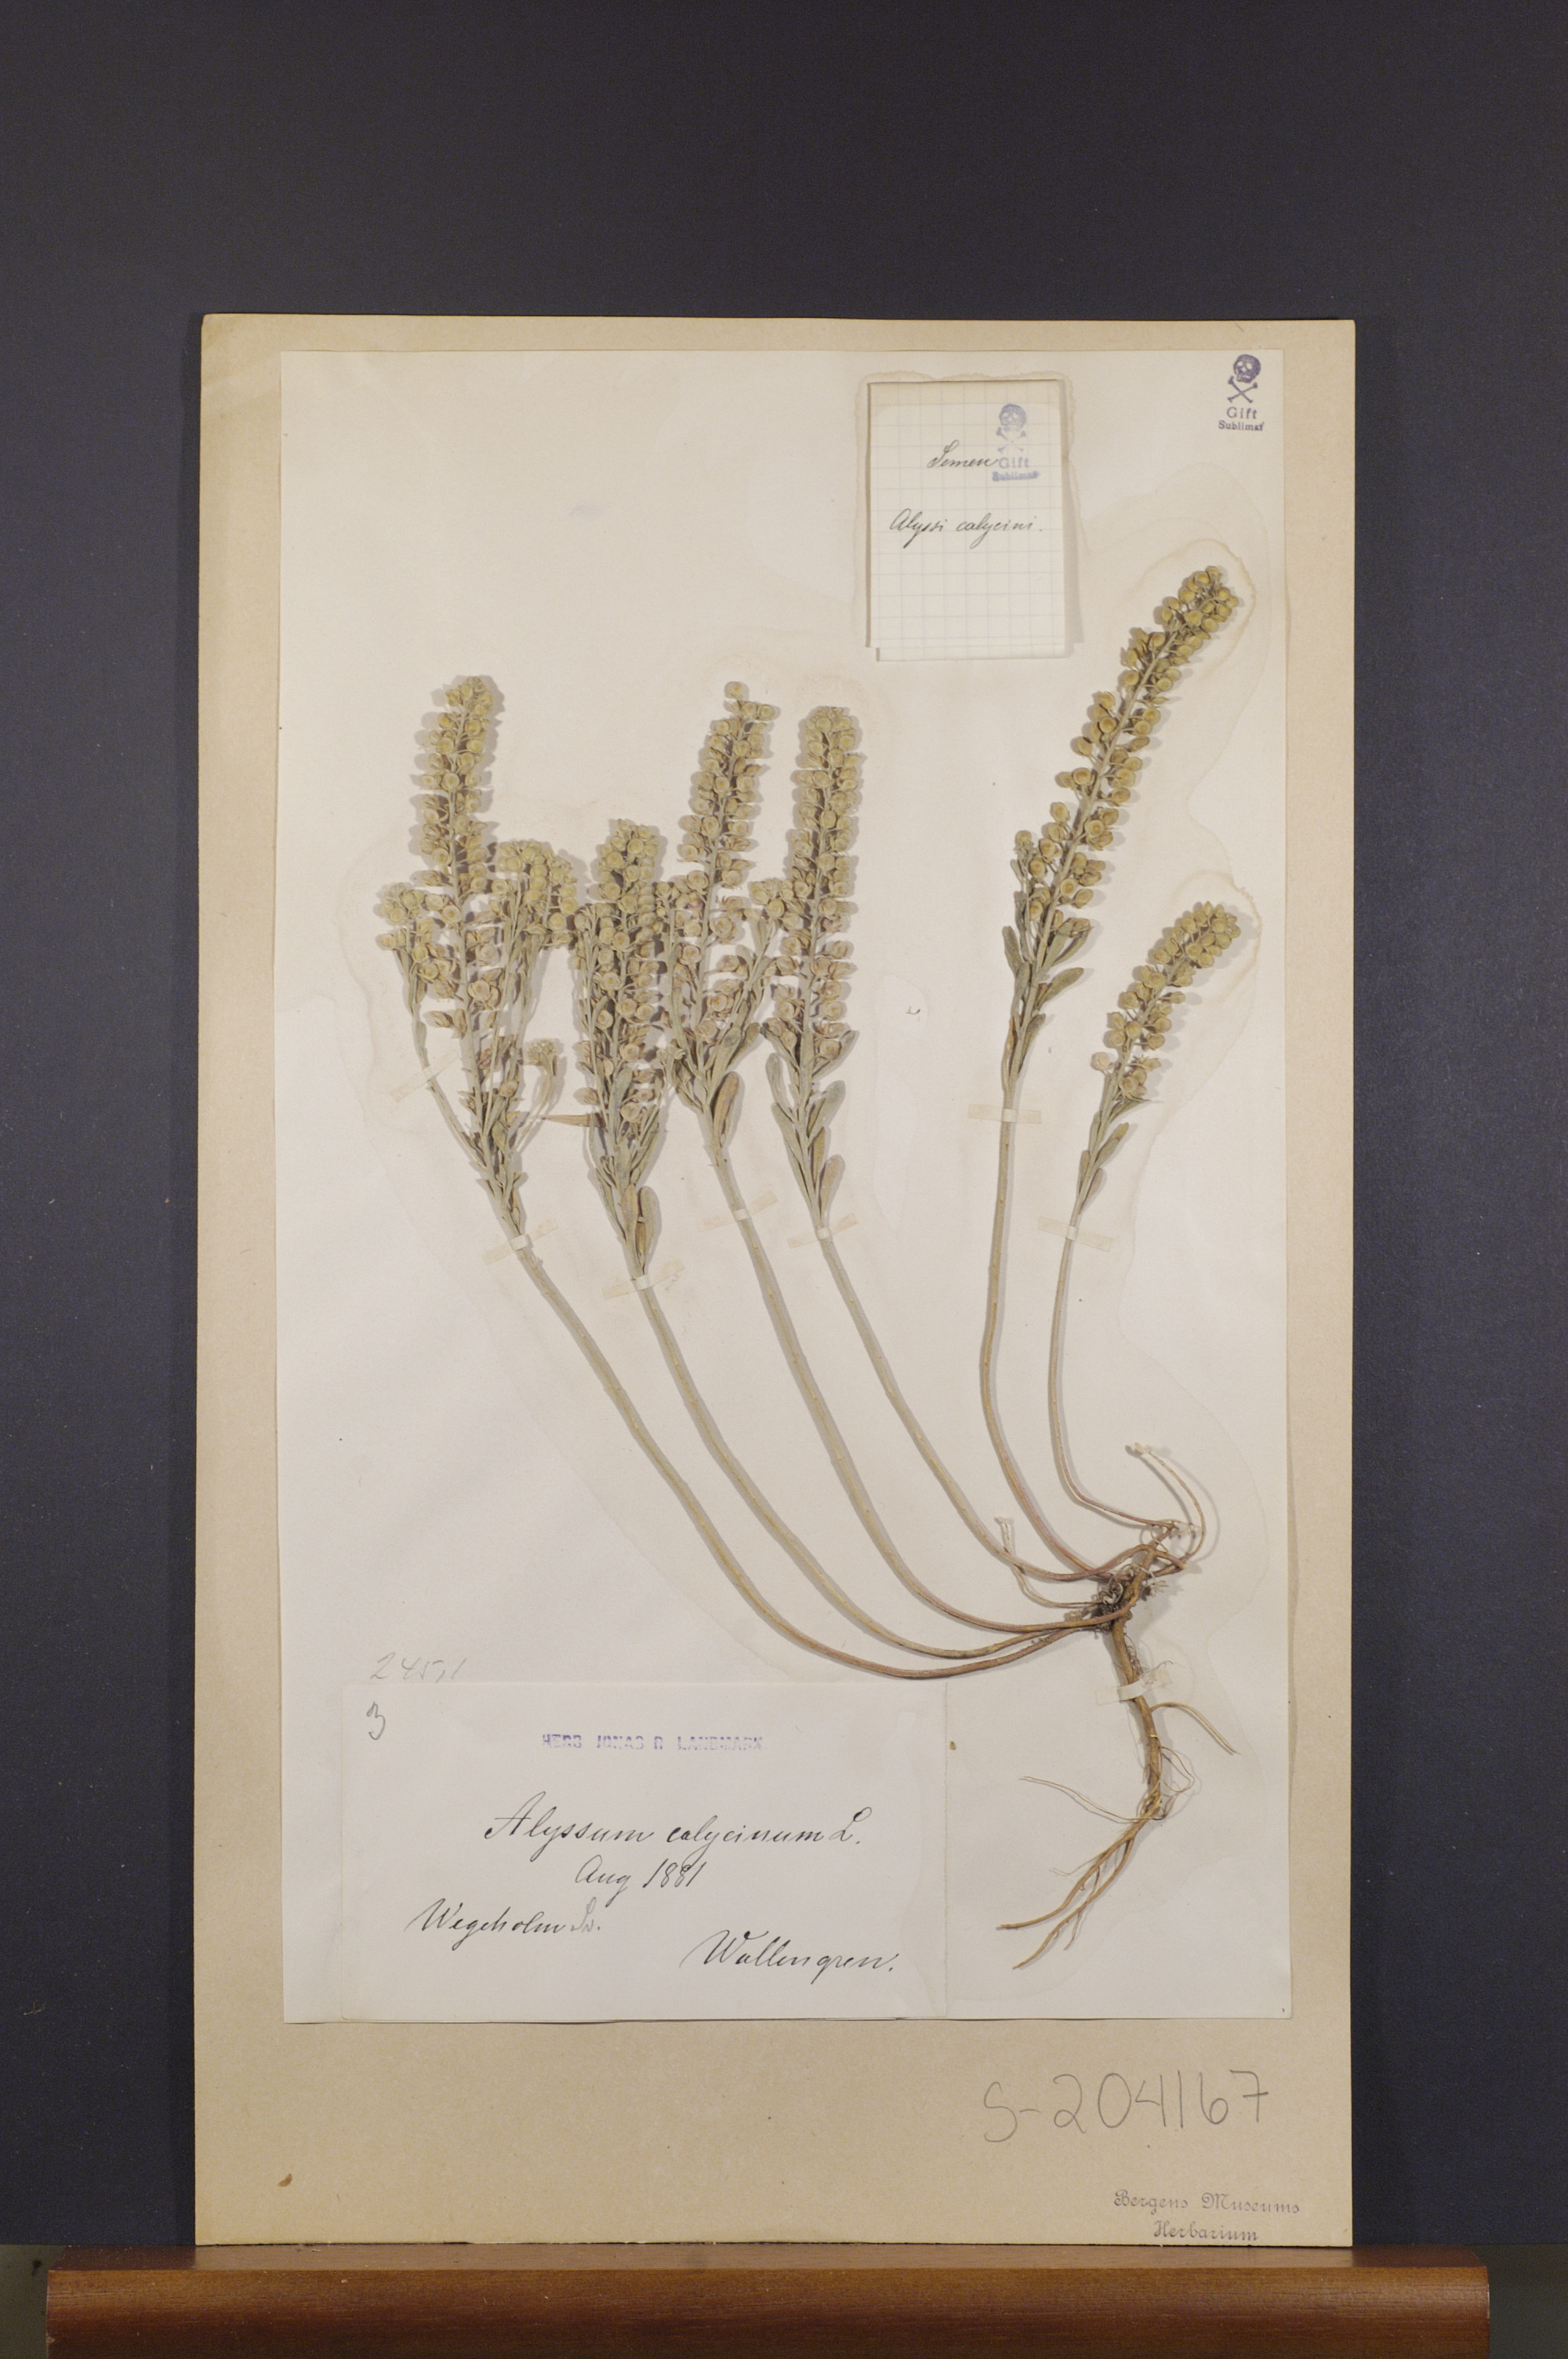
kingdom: Plantae
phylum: Tracheophyta
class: Magnoliopsida
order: Brassicales
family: Brassicaceae
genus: Alyssum
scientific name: Alyssum alyssoides
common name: Small alison
